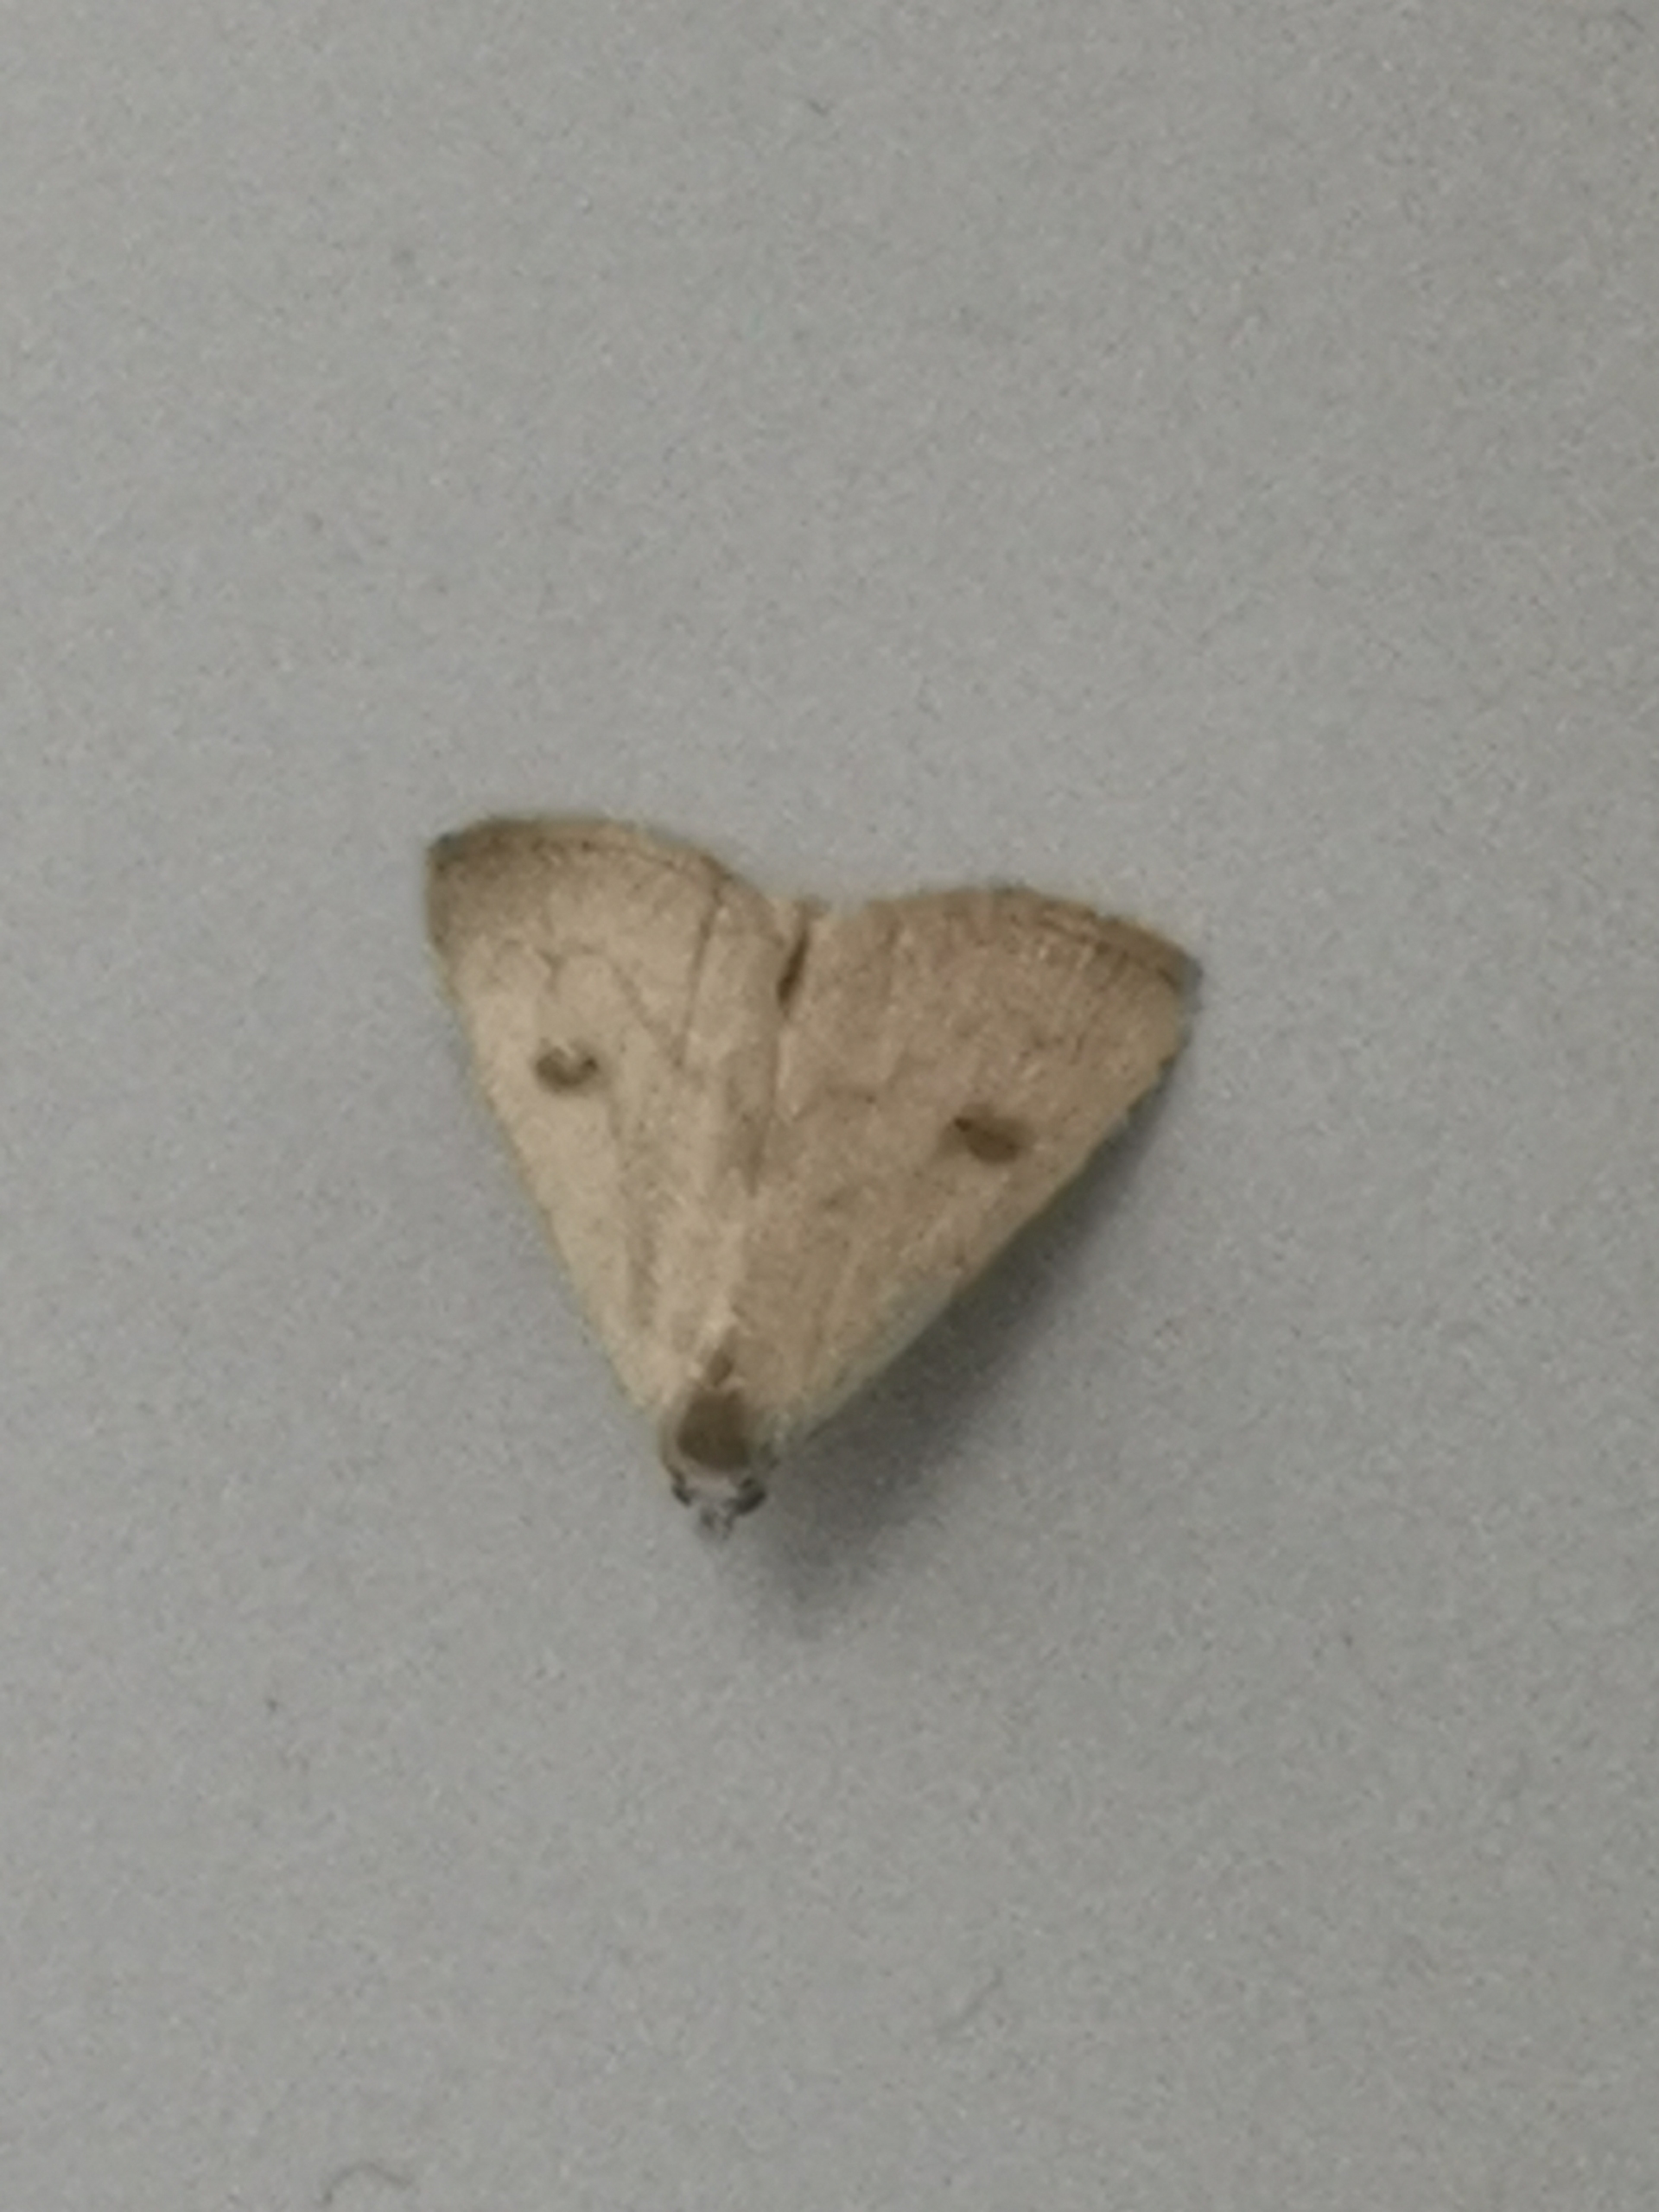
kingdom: Animalia
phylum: Arthropoda
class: Insecta
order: Lepidoptera
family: Erebidae
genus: Rivula
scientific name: Rivula sericealis
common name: Lille å-ugle
